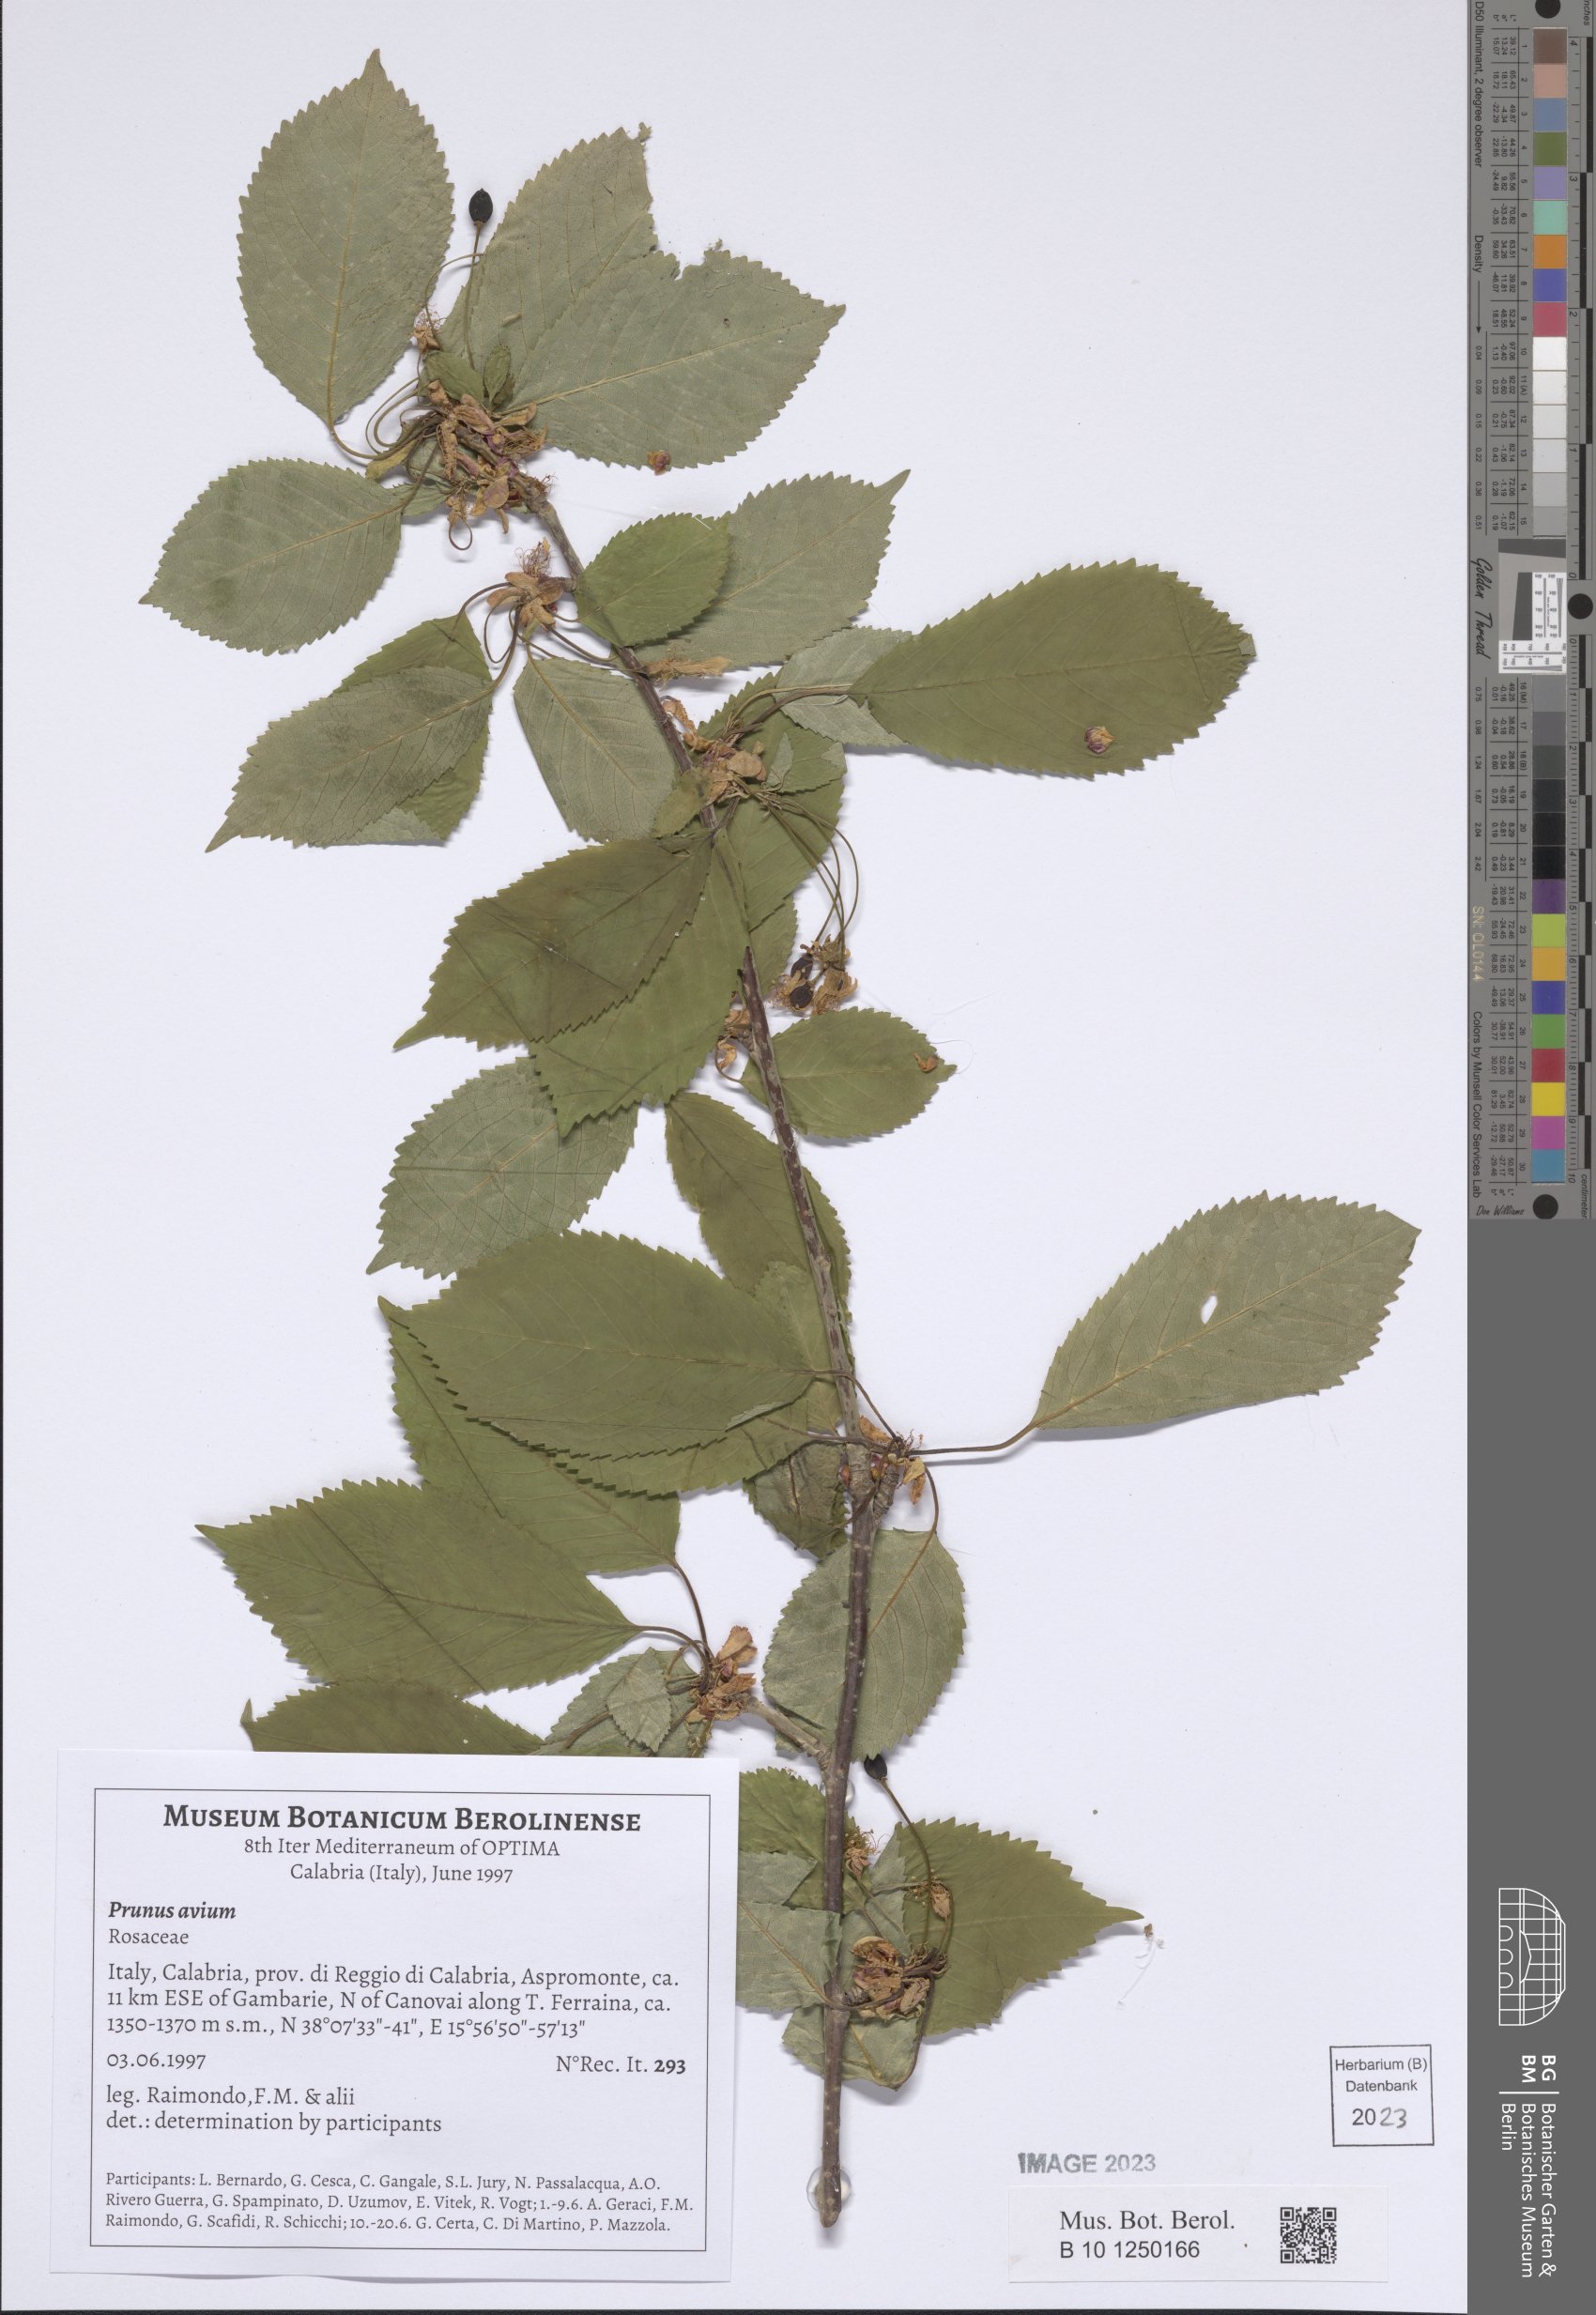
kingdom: Plantae
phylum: Tracheophyta
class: Magnoliopsida
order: Rosales
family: Rosaceae
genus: Prunus
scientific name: Prunus avium
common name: Sweet cherry
